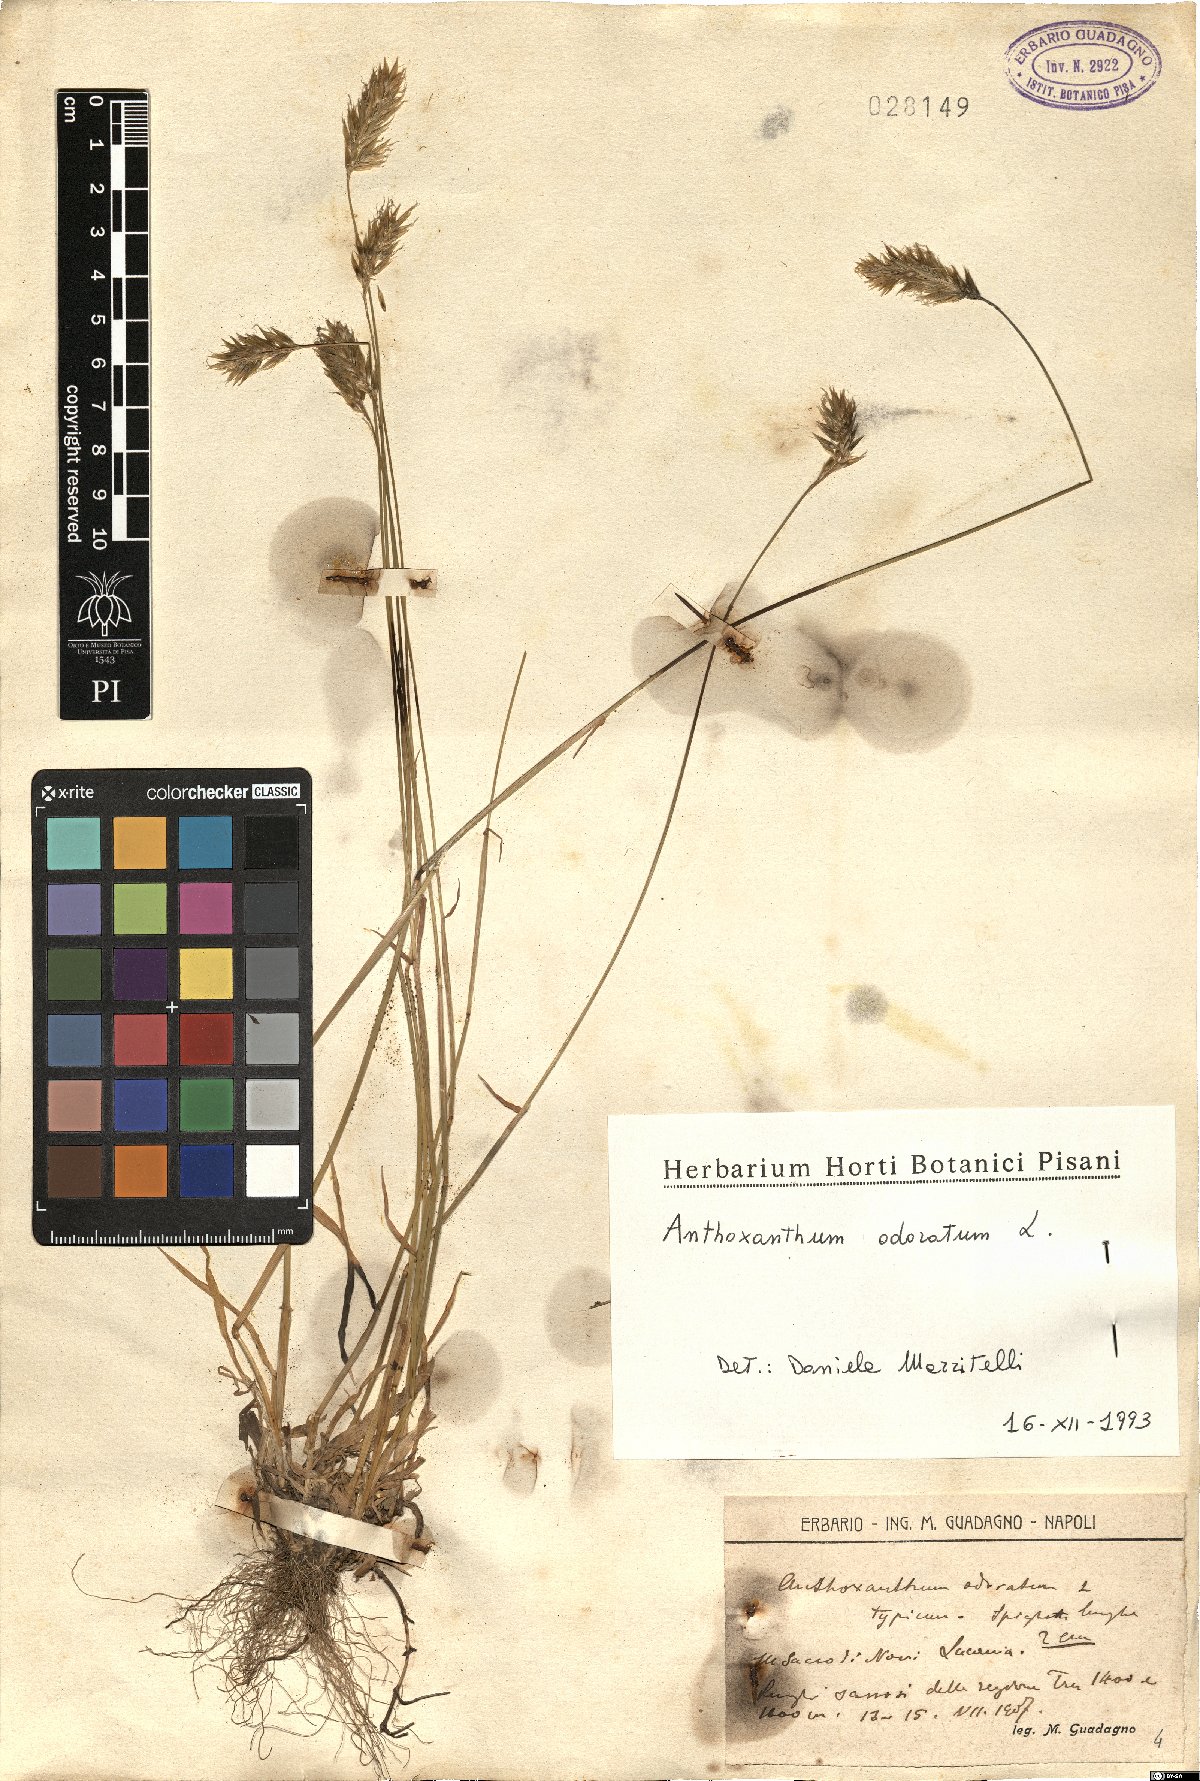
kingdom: Plantae
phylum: Tracheophyta
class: Liliopsida
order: Poales
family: Poaceae
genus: Anthoxanthum
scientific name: Anthoxanthum odoratum
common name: Sweet vernalgrass
